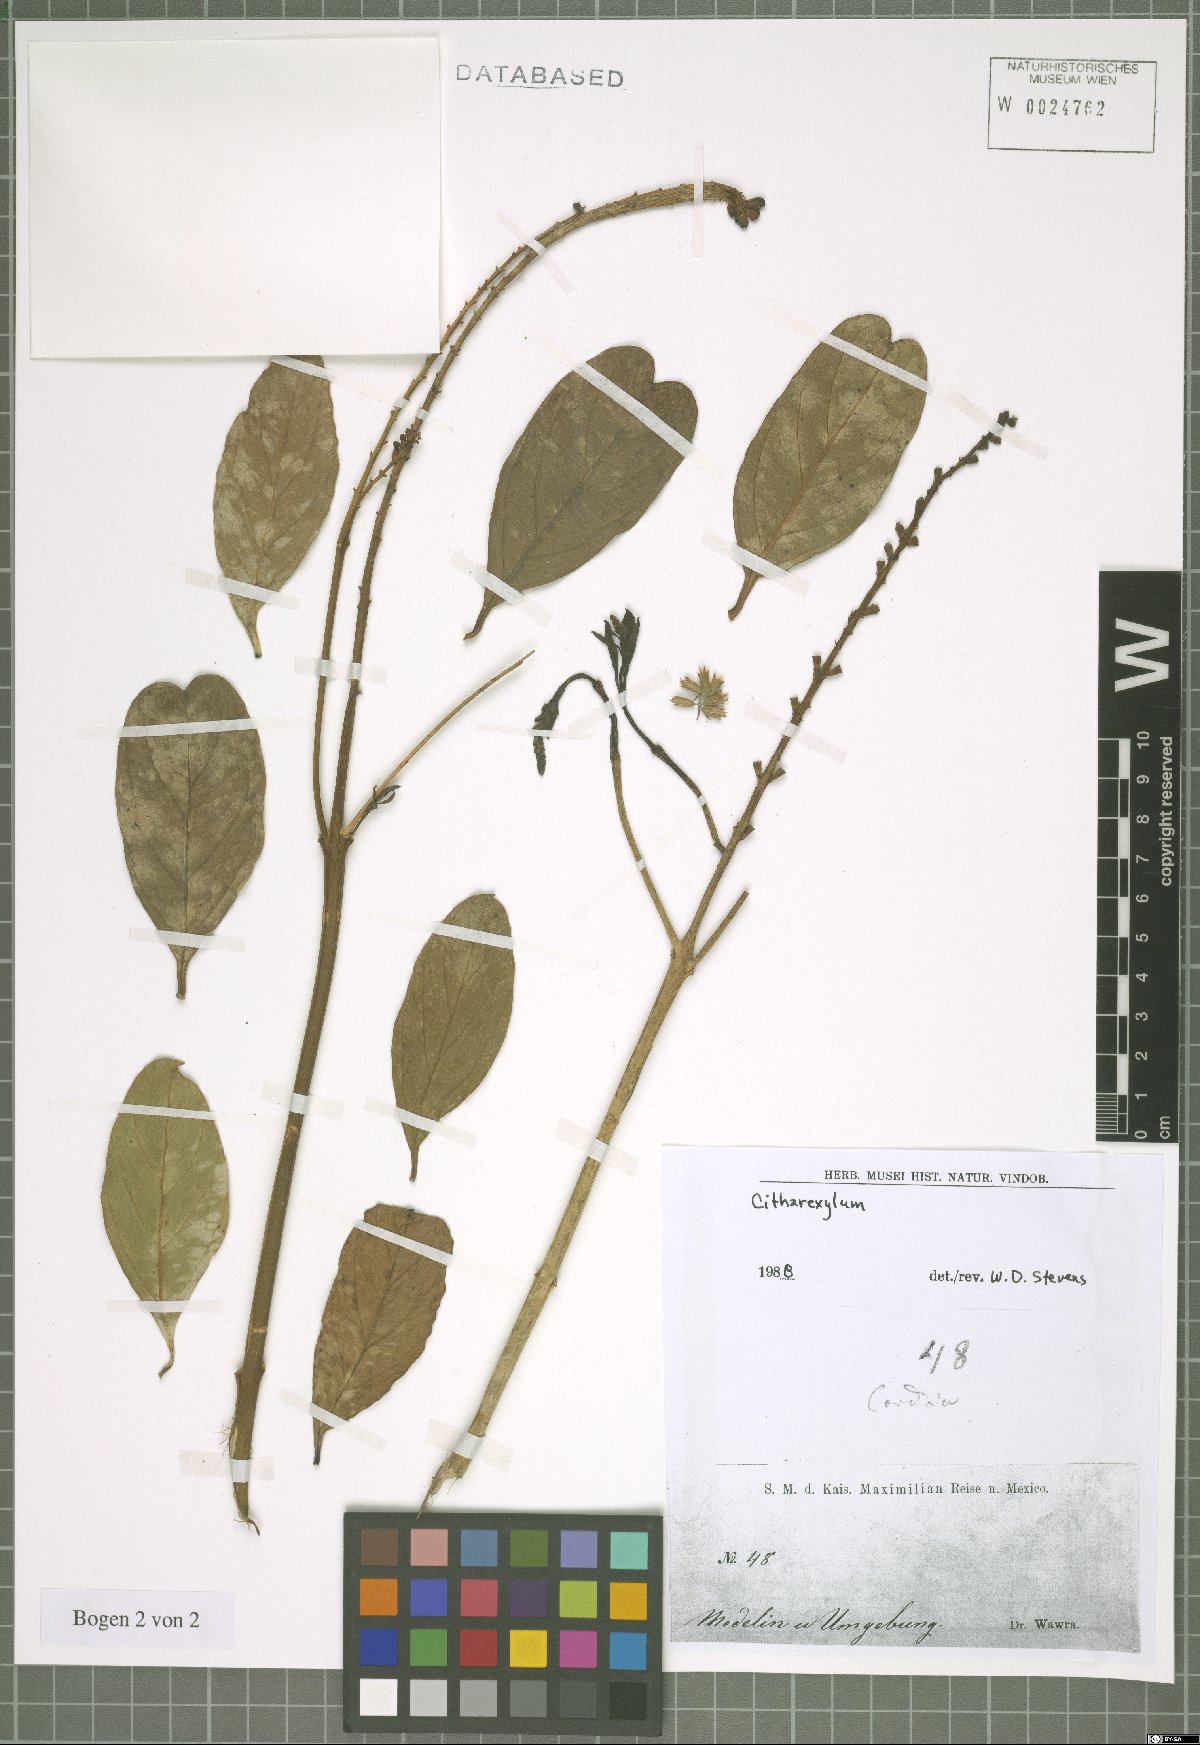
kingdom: Plantae
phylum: Tracheophyta
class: Magnoliopsida
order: Lamiales
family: Verbenaceae
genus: Citharexylum
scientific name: Citharexylum
